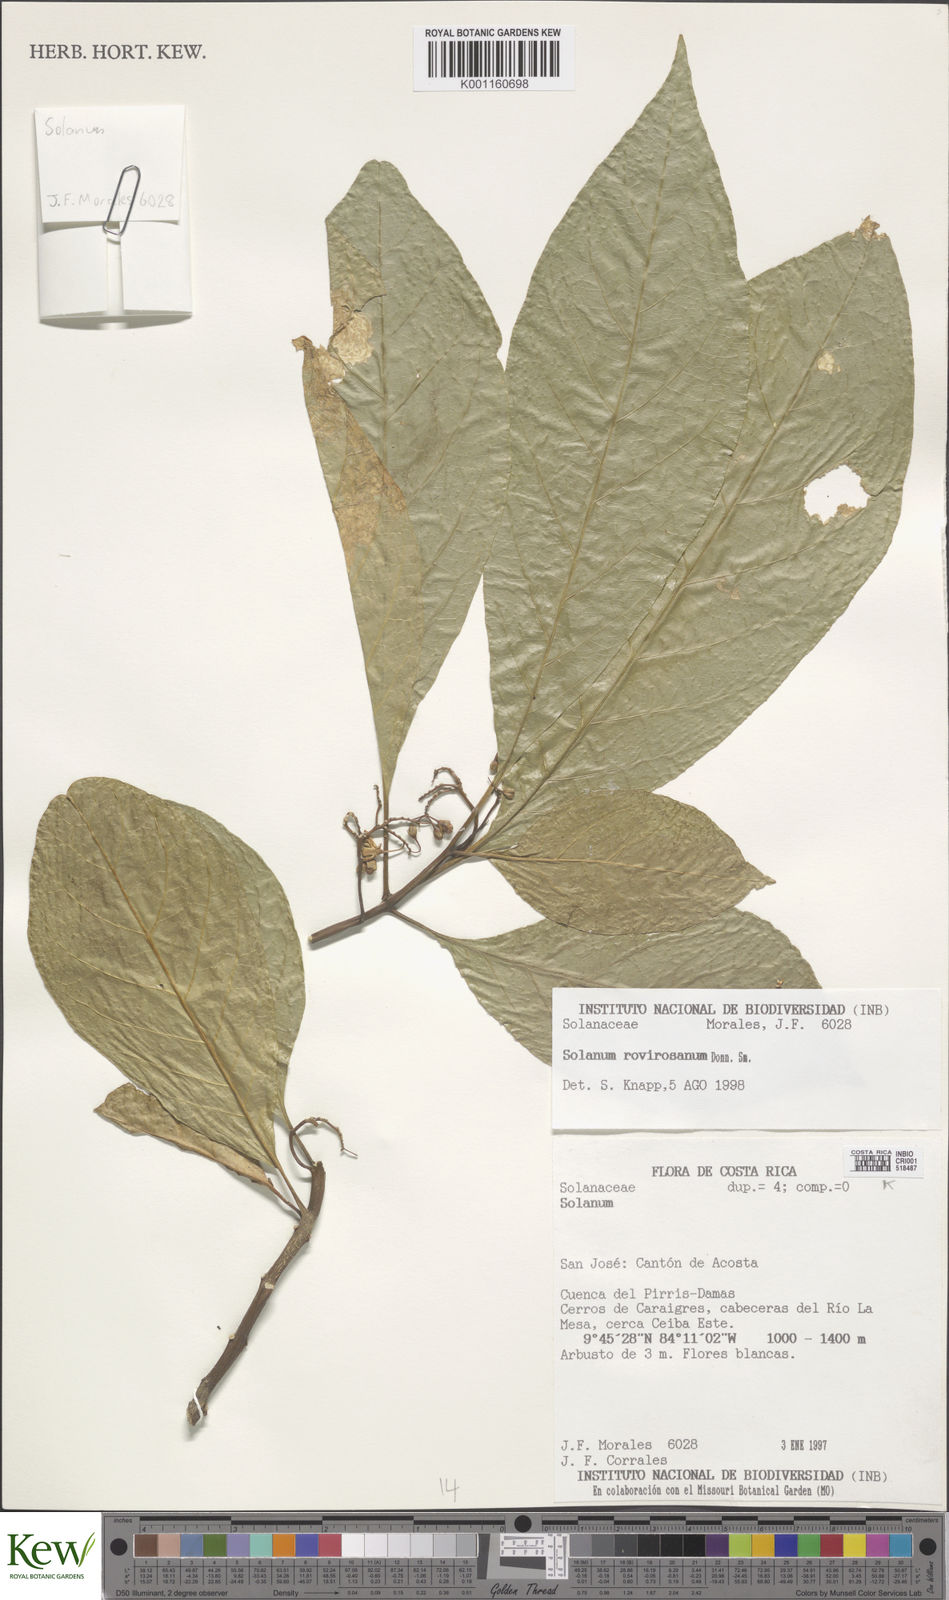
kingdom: Plantae
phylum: Tracheophyta
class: Magnoliopsida
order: Solanales
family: Solanaceae
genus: Solanum
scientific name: Solanum rovirosanum
